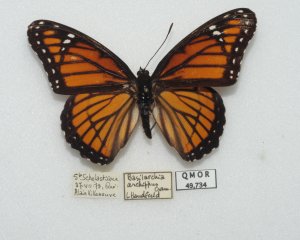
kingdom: Animalia
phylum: Arthropoda
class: Insecta
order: Lepidoptera
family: Nymphalidae
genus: Limenitis
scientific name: Limenitis archippus
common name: Viceroy
